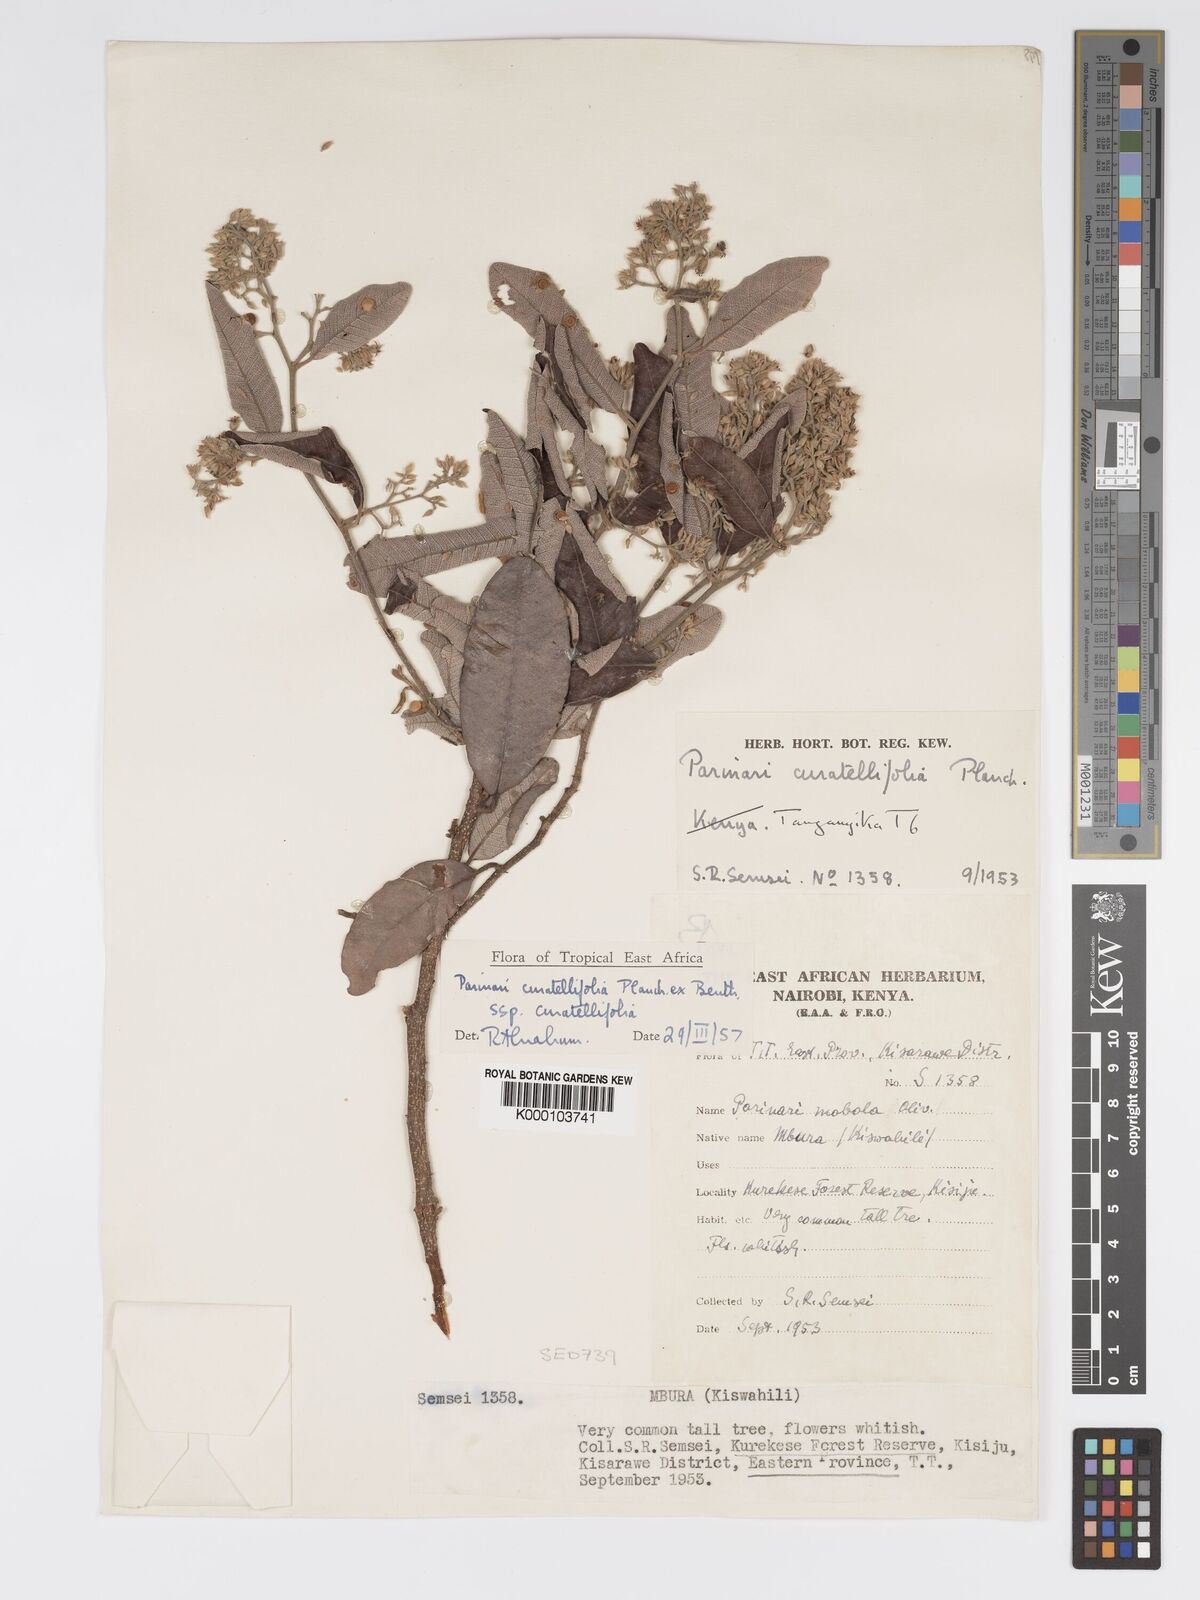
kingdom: Plantae
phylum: Tracheophyta
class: Magnoliopsida
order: Malpighiales
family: Chrysobalanaceae
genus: Parinari
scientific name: Parinari curatellifolia
